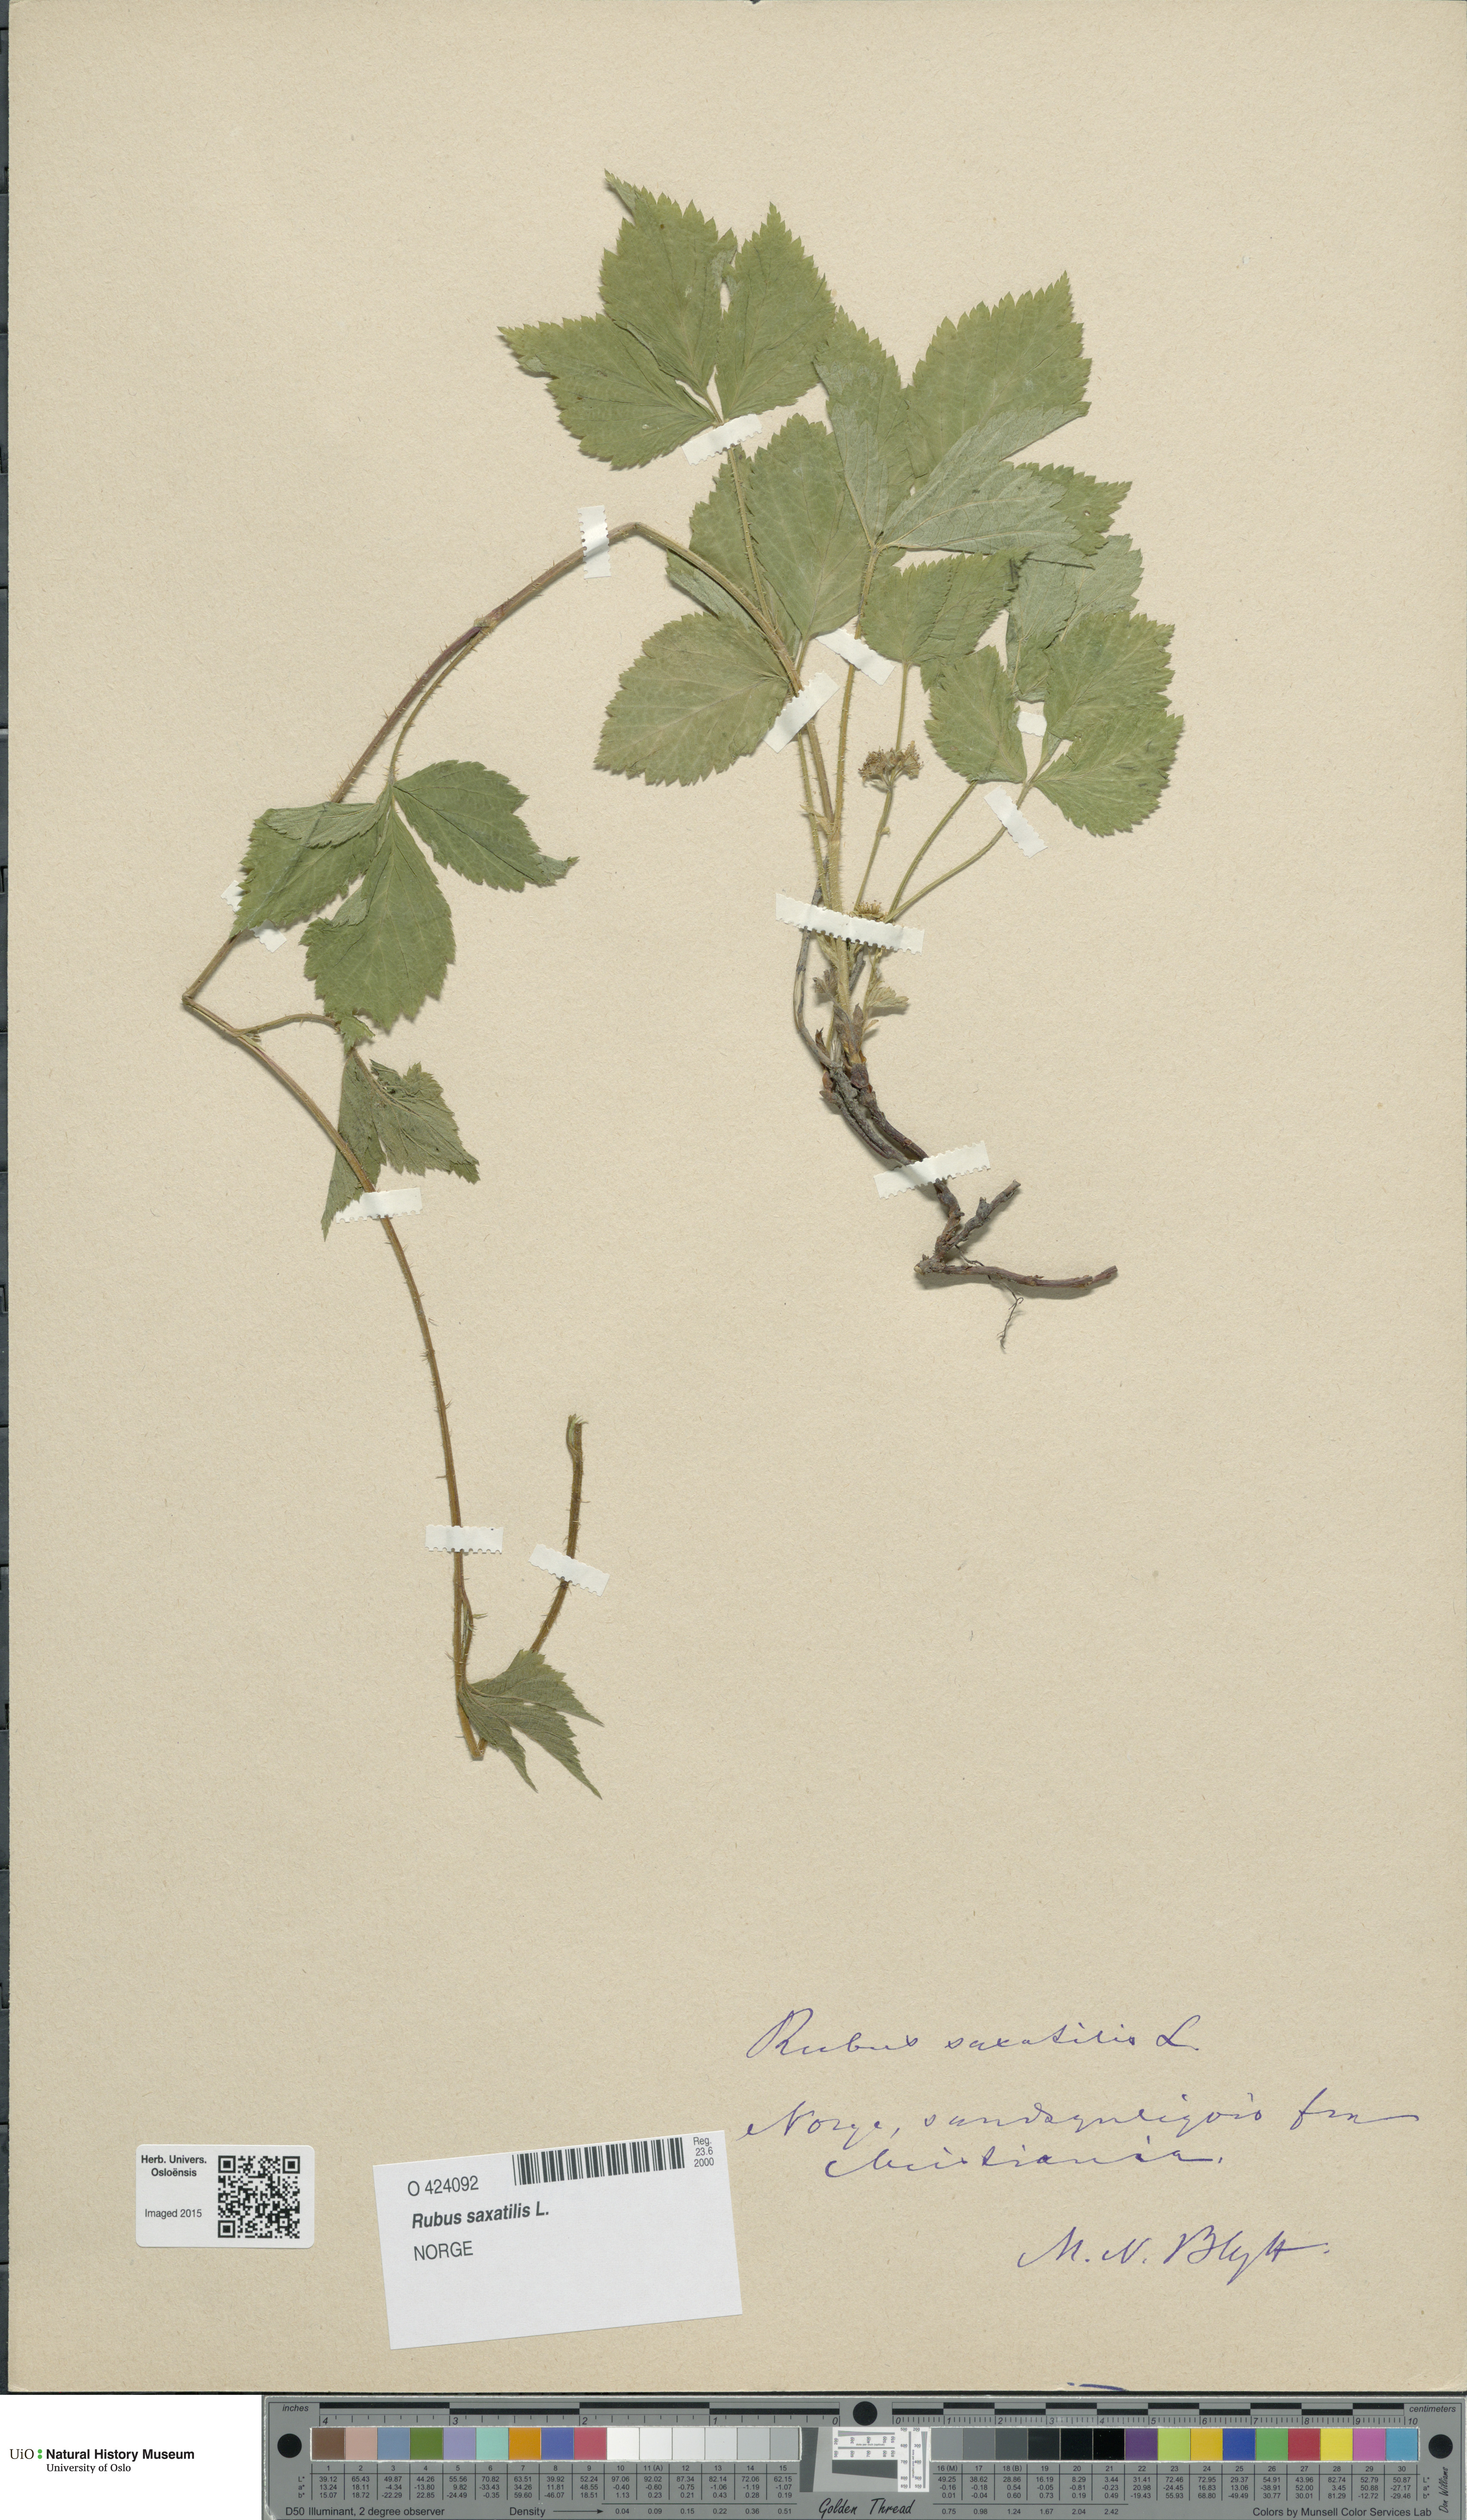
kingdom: Plantae
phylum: Tracheophyta
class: Magnoliopsida
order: Rosales
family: Rosaceae
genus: Rubus
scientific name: Rubus saxatilis
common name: Stone bramble
